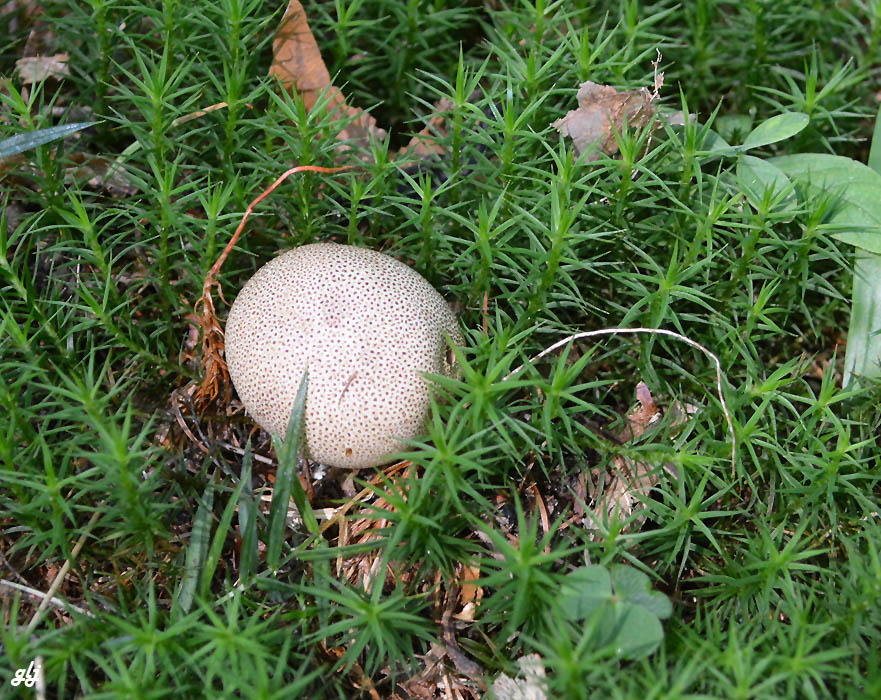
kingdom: Fungi
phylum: Basidiomycota
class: Agaricomycetes
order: Boletales
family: Sclerodermataceae
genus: Scleroderma
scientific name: Scleroderma areolatum
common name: plettet bruskbold
